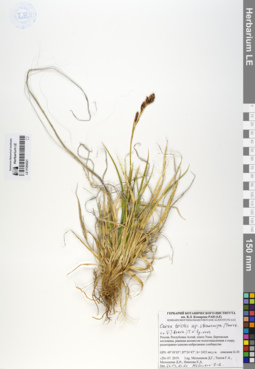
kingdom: Plantae
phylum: Tracheophyta
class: Liliopsida
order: Poales
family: Cyperaceae
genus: Carex
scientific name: Carex stenocarpa
